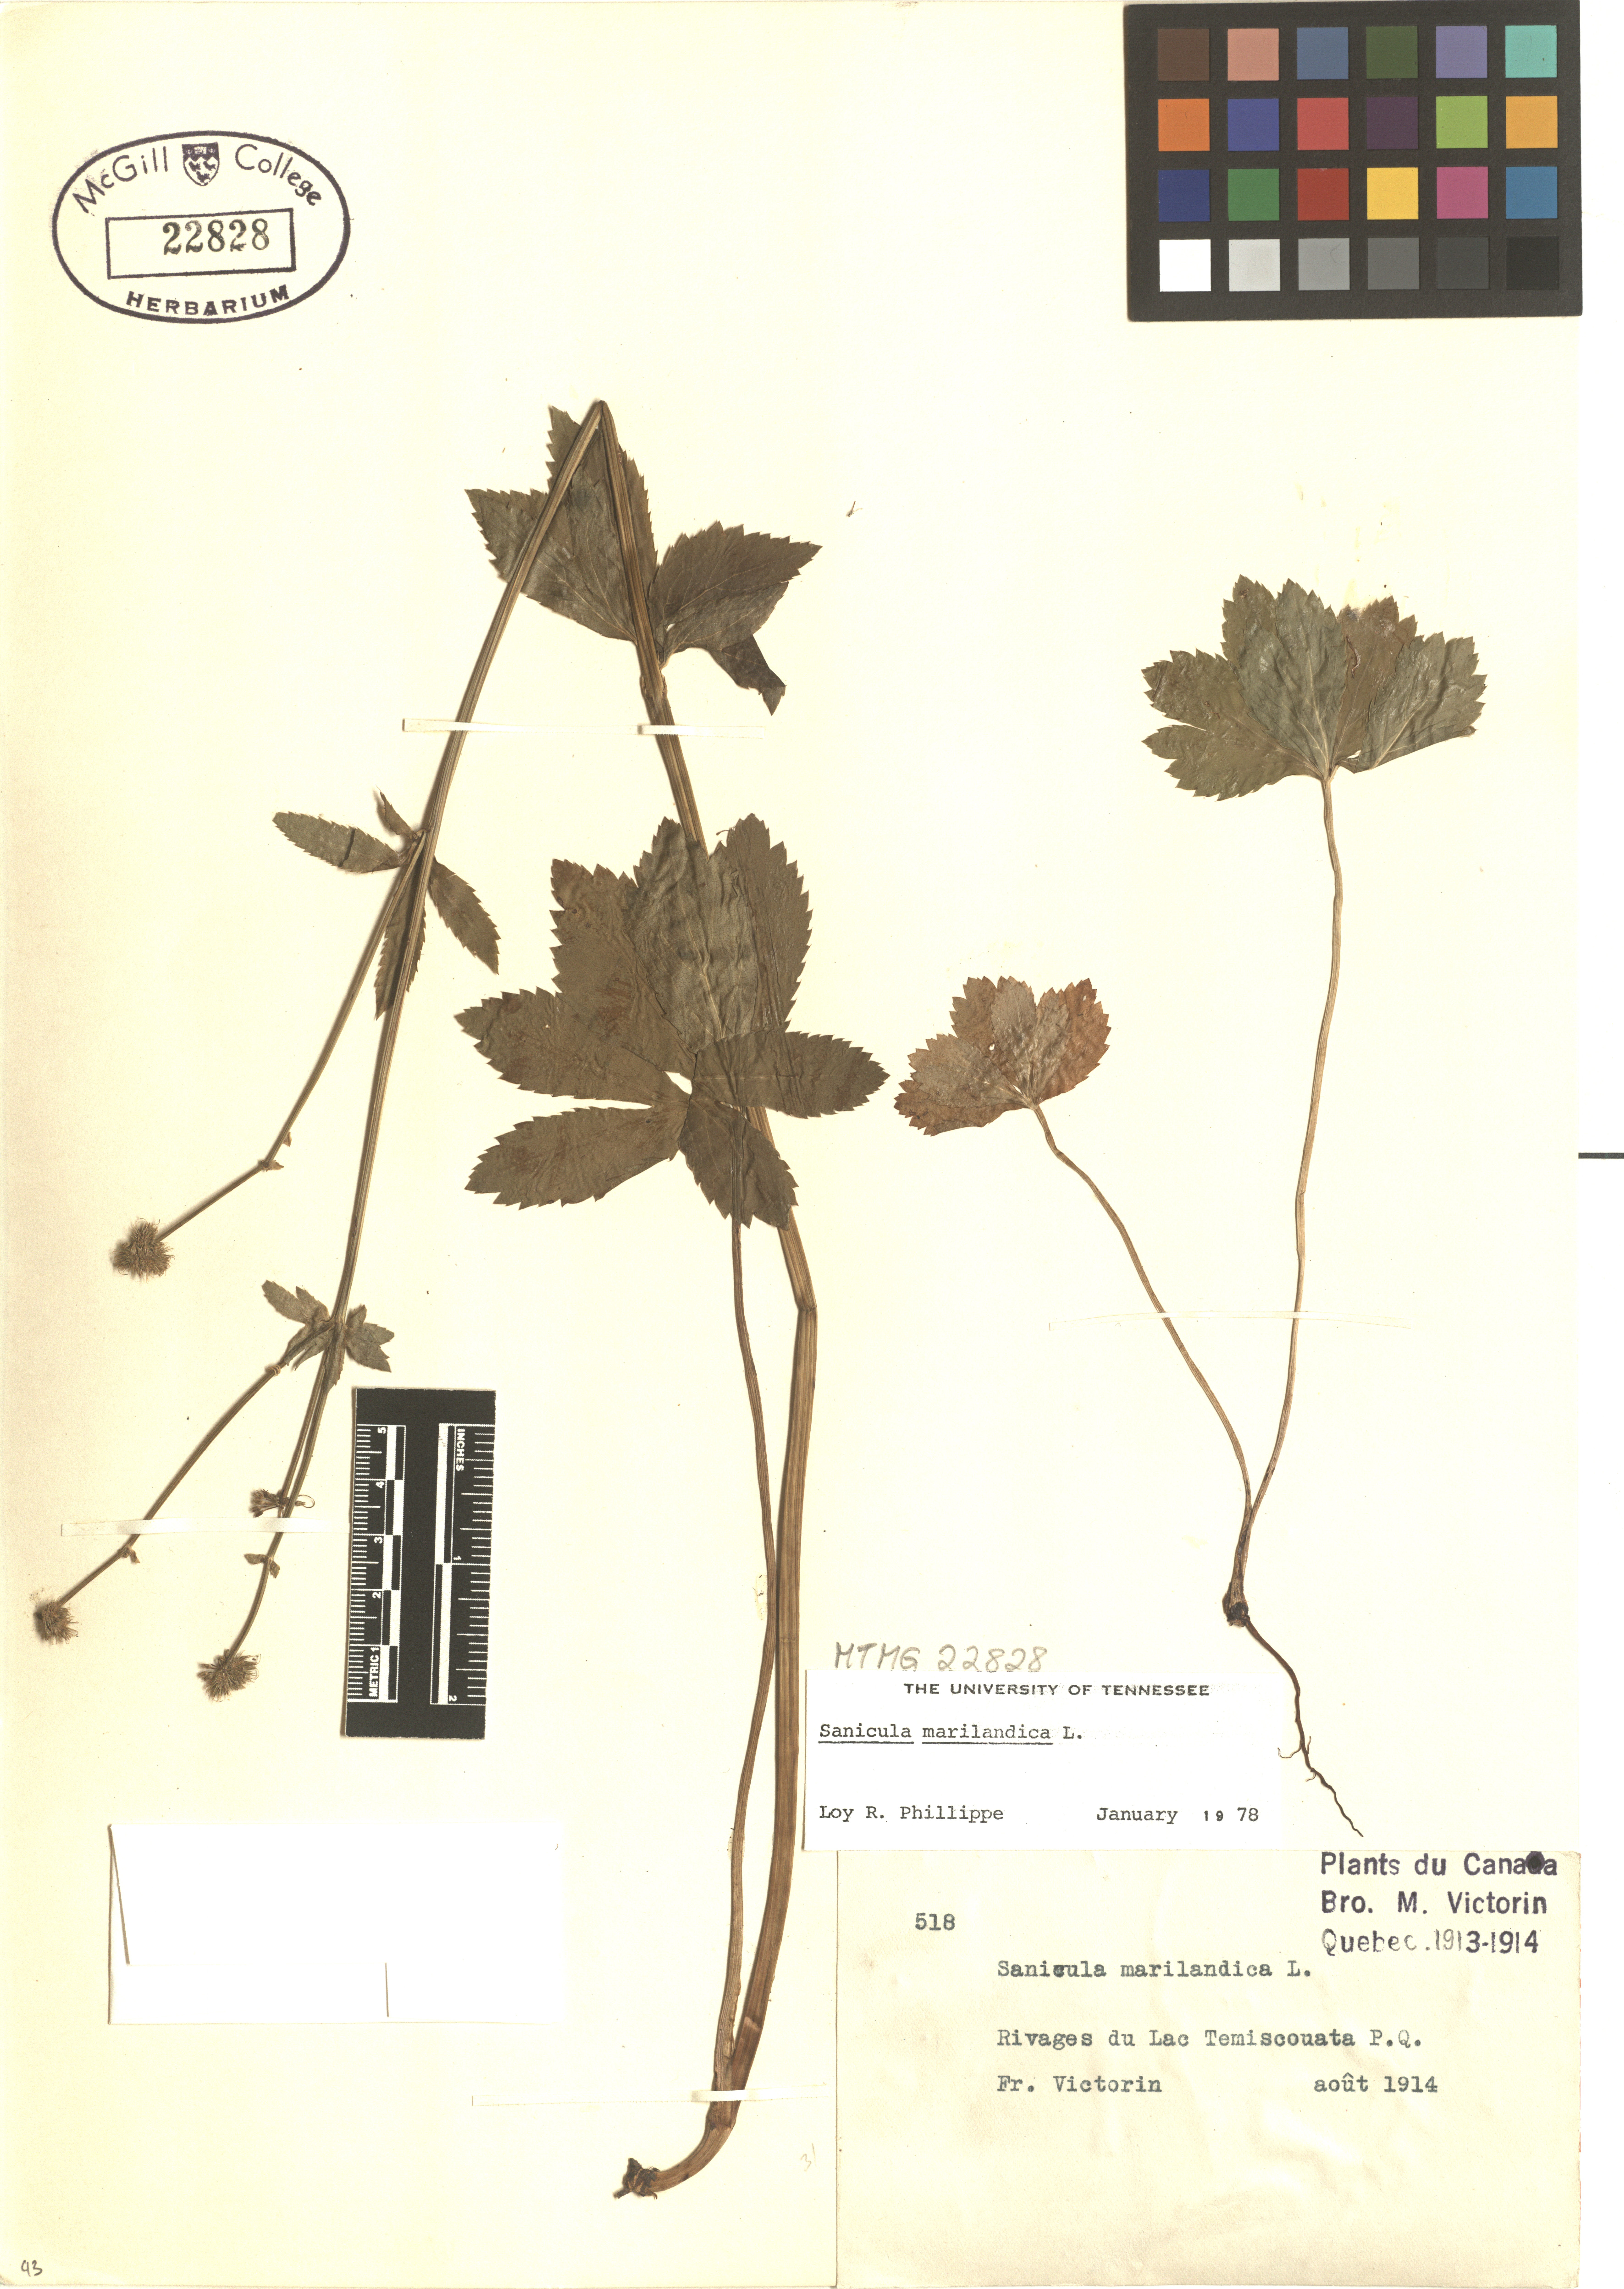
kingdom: Plantae
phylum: Tracheophyta
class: Magnoliopsida
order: Apiales
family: Apiaceae
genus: Sanicula
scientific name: Sanicula marilandica
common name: Black snakeroot
